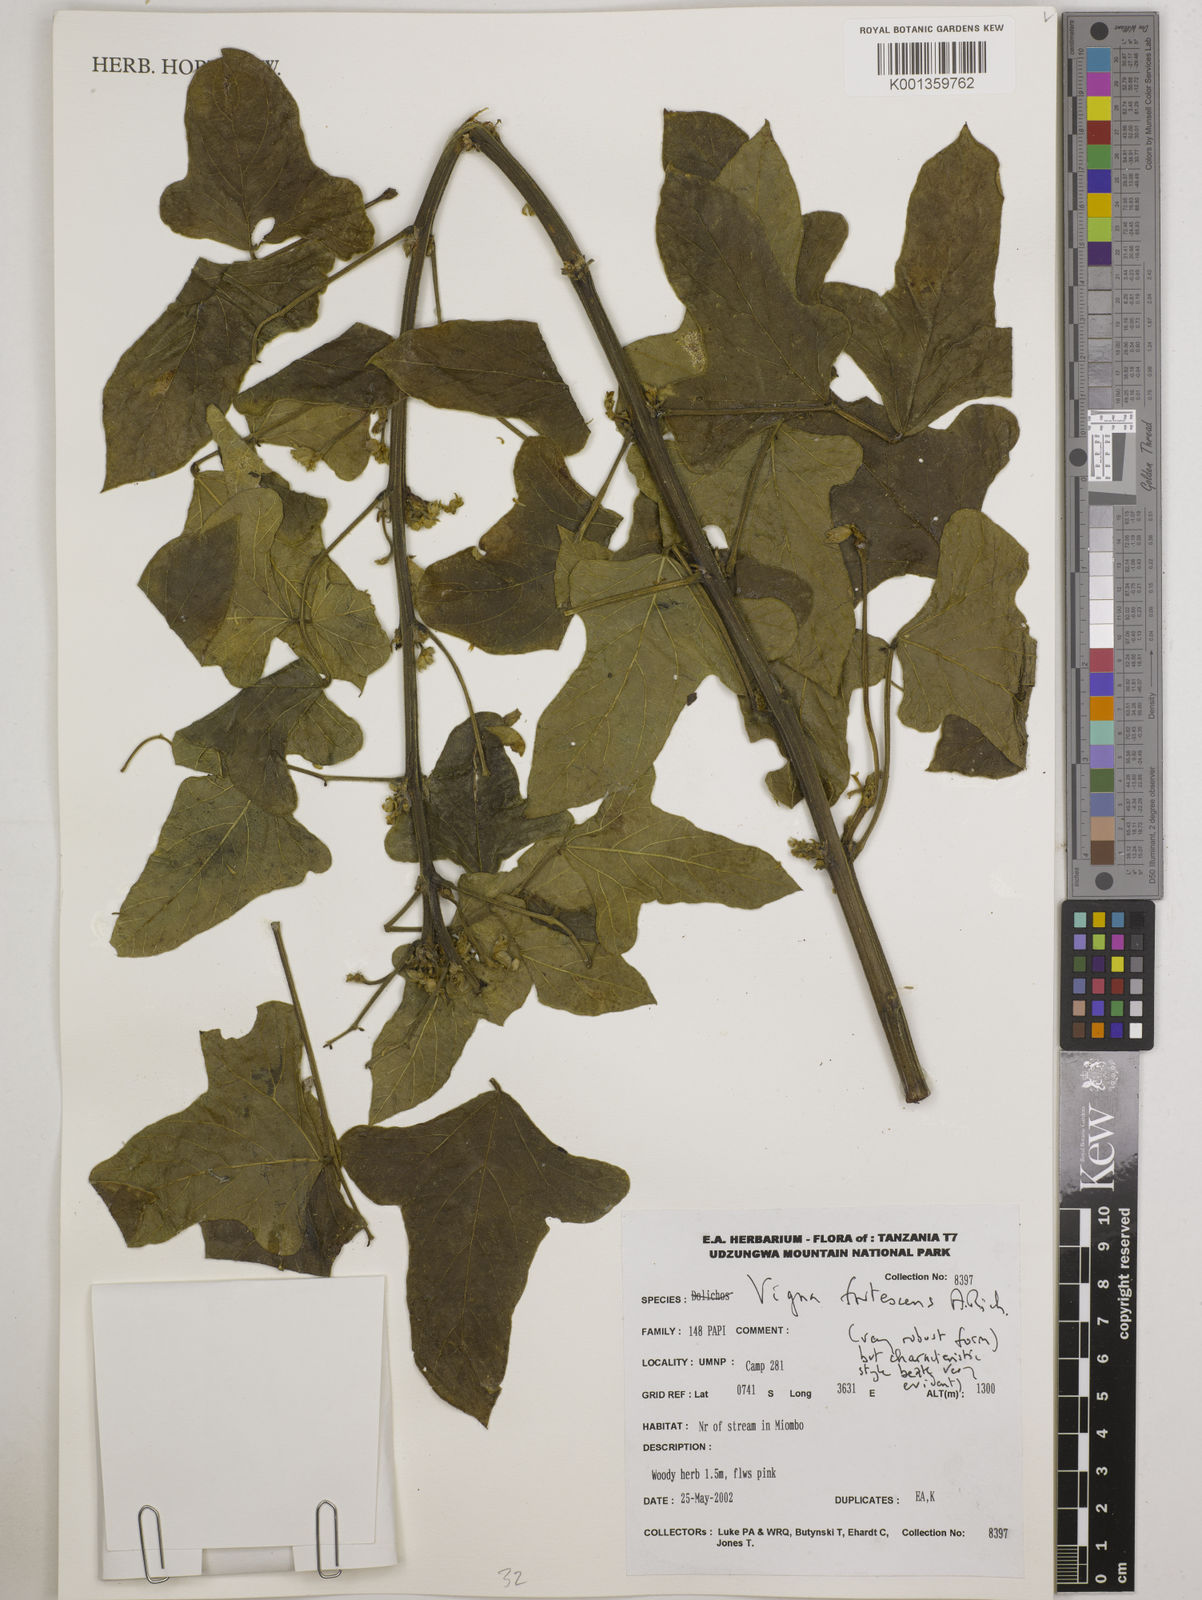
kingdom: Plantae
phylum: Tracheophyta
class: Magnoliopsida
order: Fabales
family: Fabaceae
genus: Vigna
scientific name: Vigna frutescens
